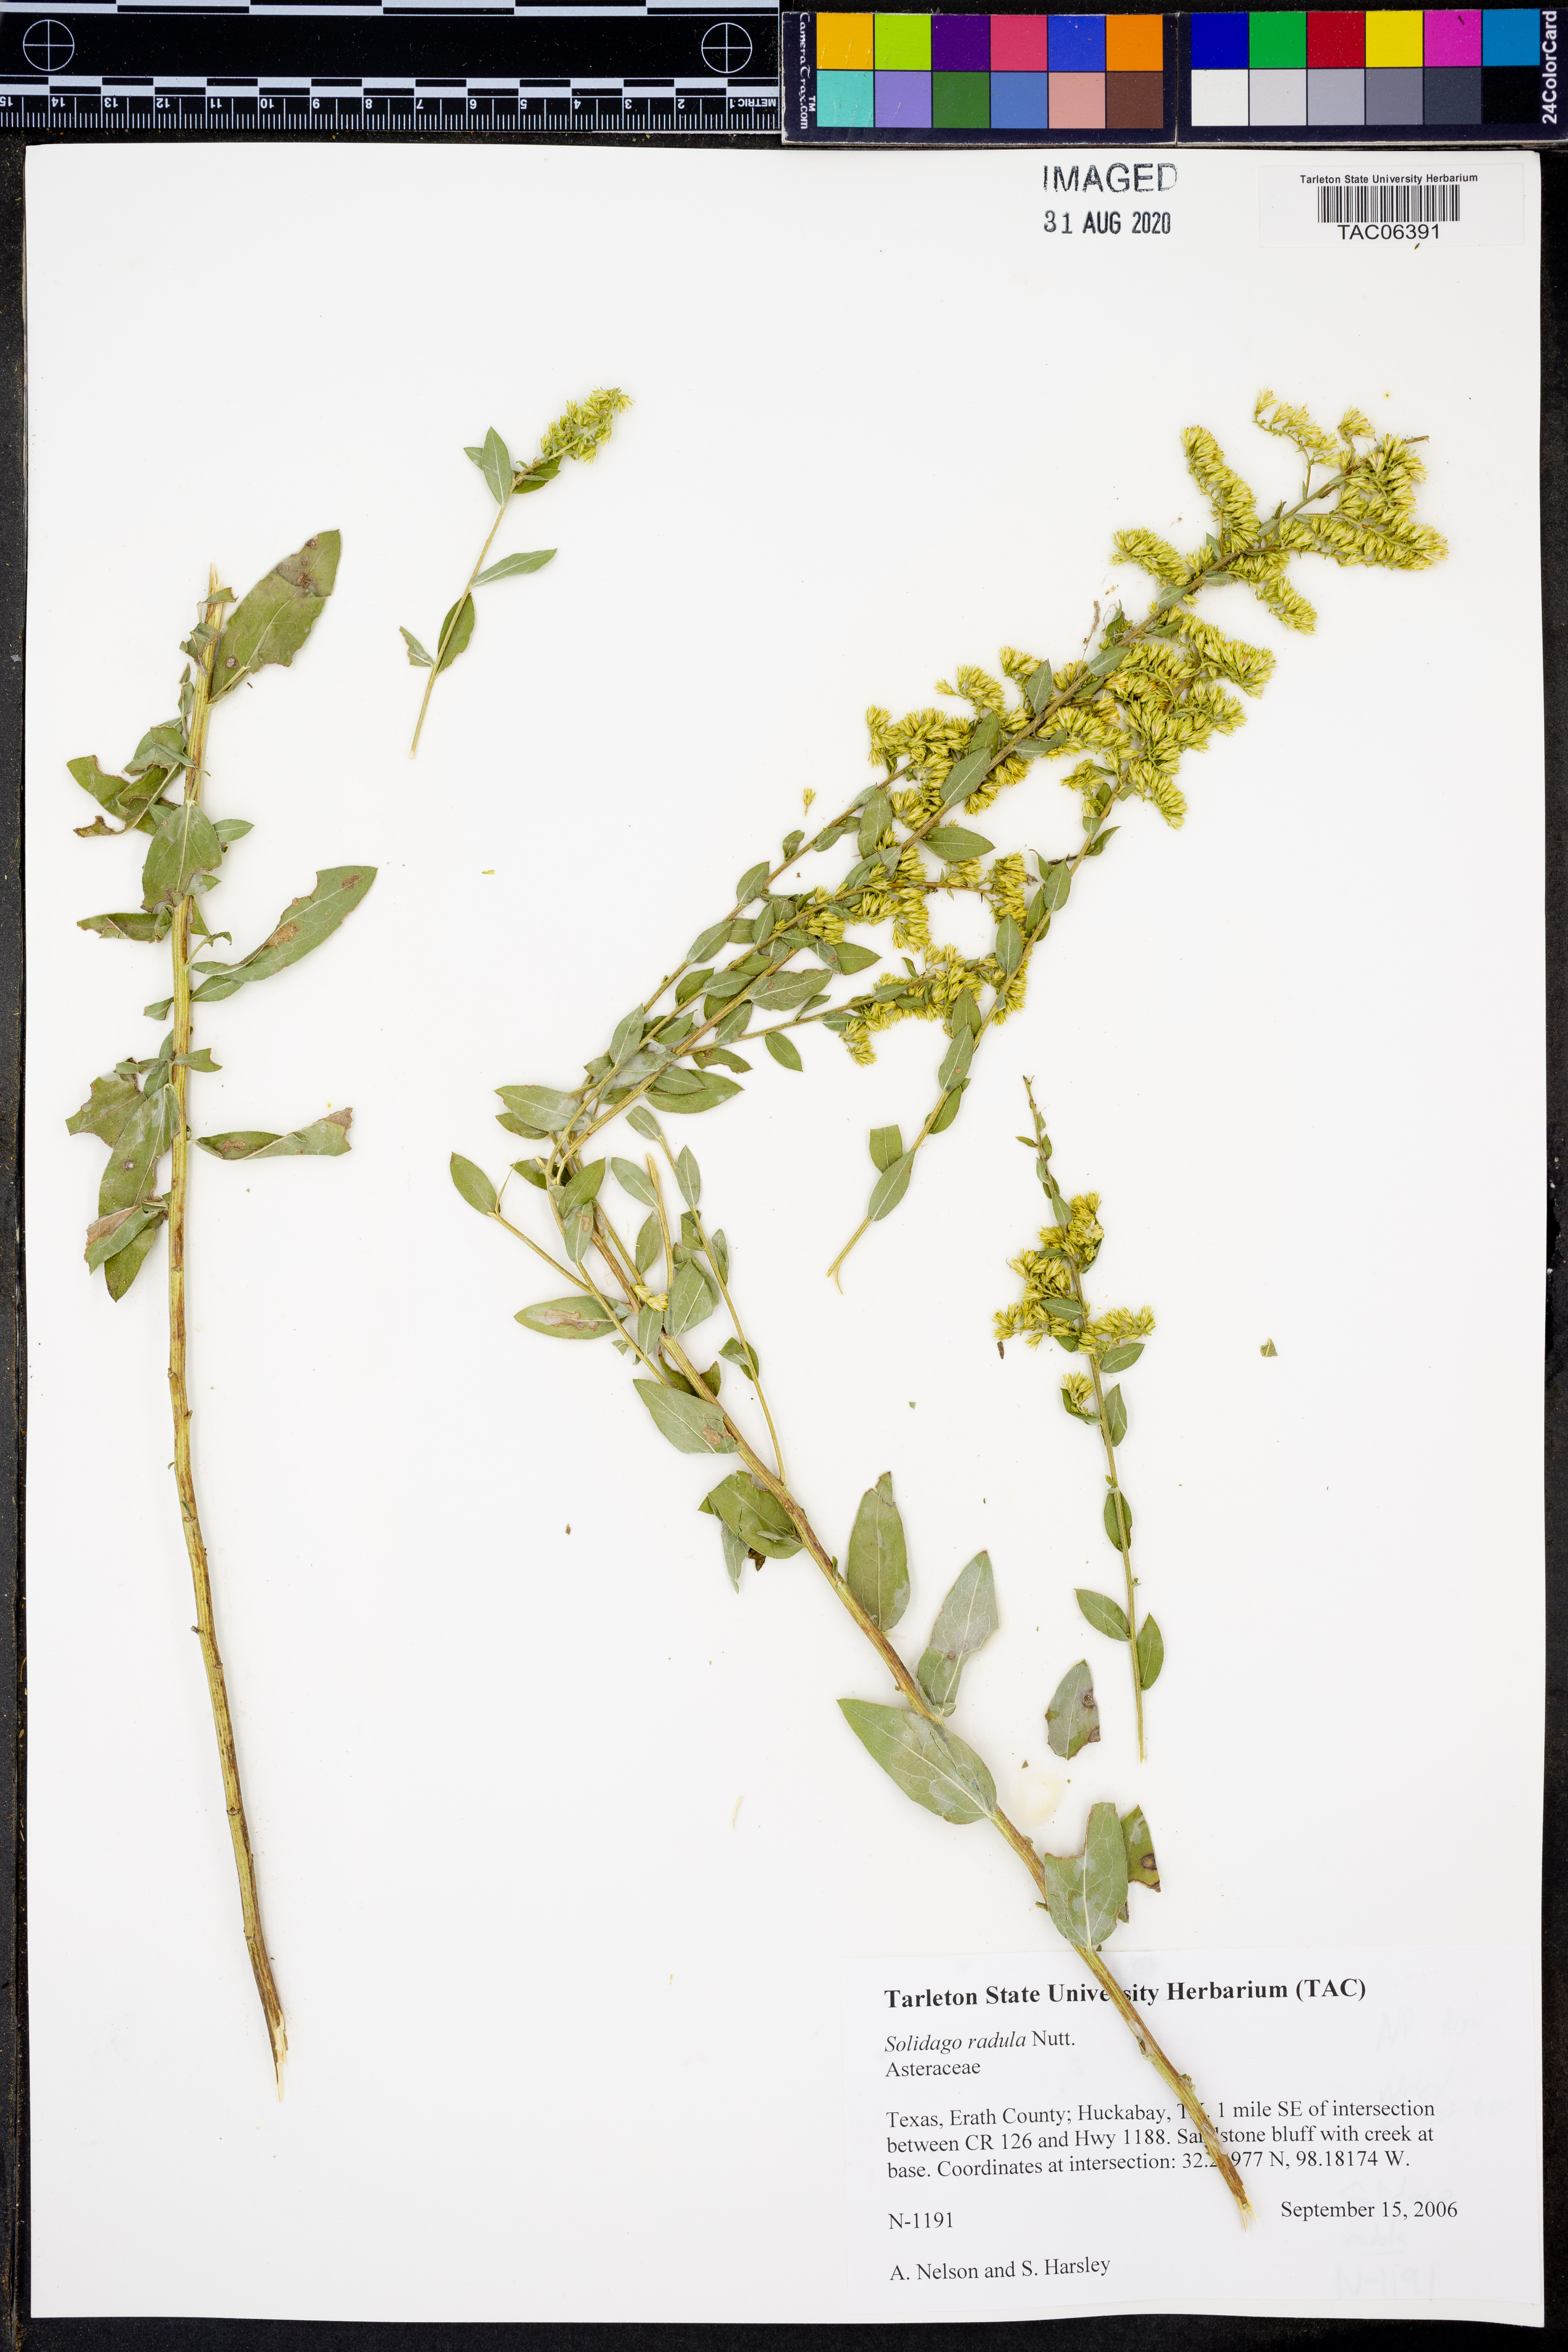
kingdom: Plantae
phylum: Tracheophyta
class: Magnoliopsida
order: Asterales
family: Asteraceae
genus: Solidago
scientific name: Solidago radula
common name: Western rough goldenrod
